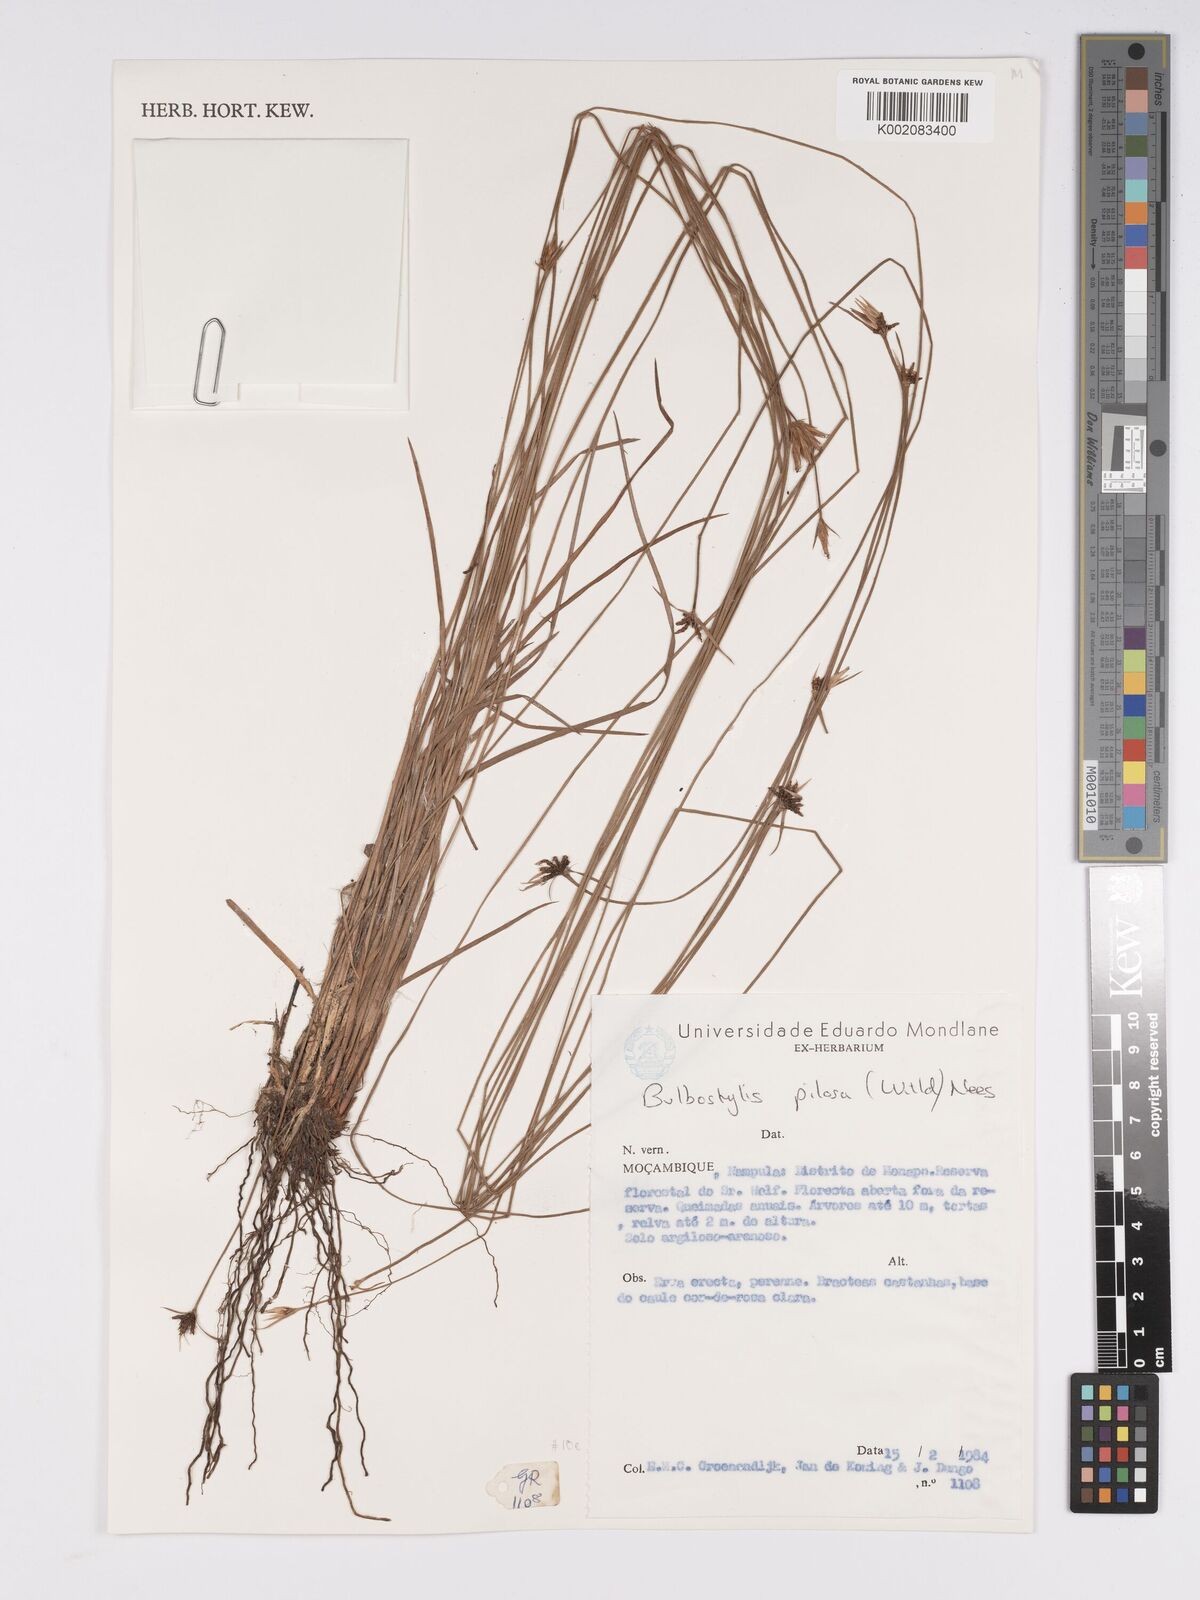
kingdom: Plantae
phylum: Tracheophyta
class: Liliopsida
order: Poales
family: Cyperaceae
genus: Bulbostylis
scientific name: Bulbostylis pilosa
